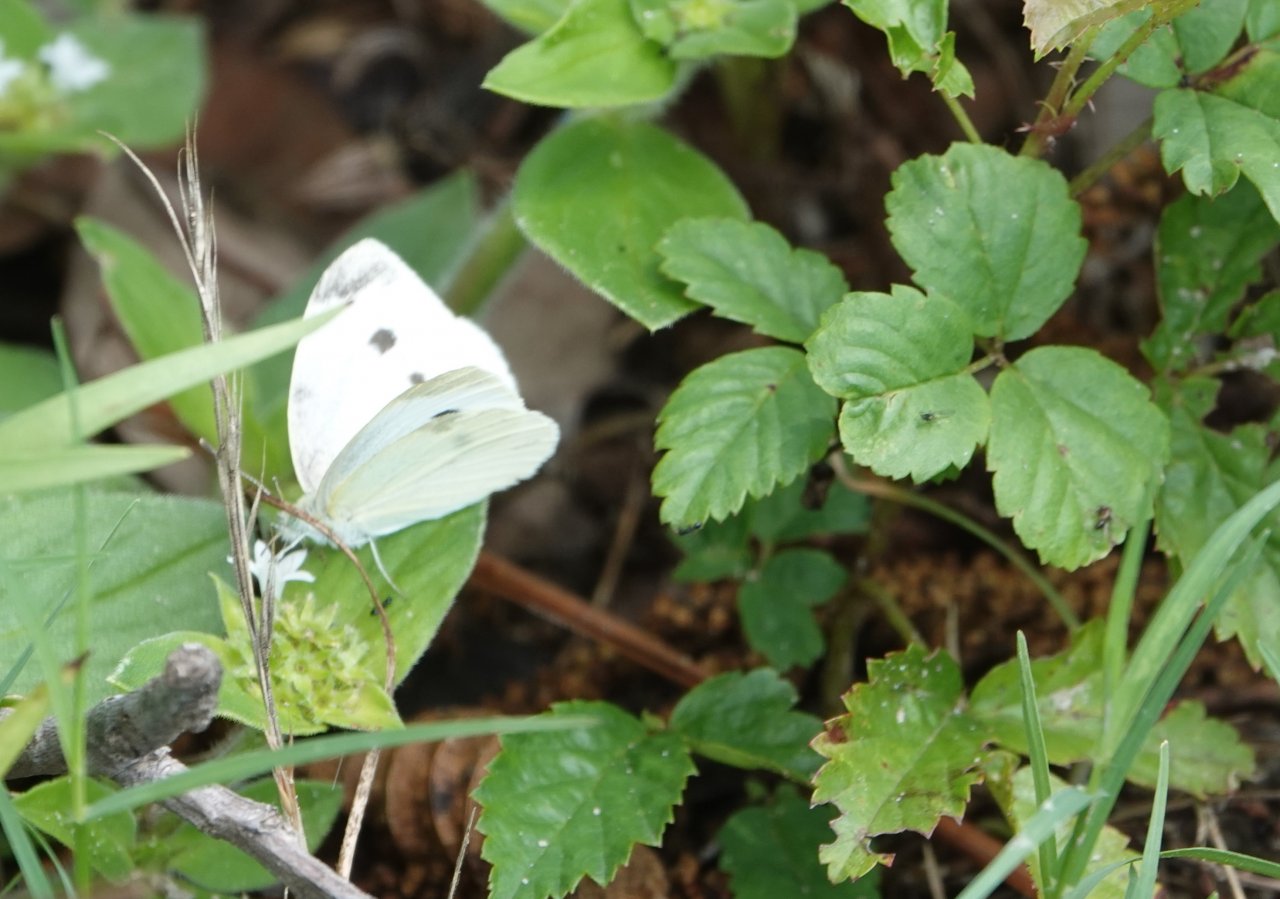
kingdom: Animalia
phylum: Arthropoda
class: Insecta
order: Lepidoptera
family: Pieridae
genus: Pieris
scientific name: Pieris rapae
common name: Cabbage White
